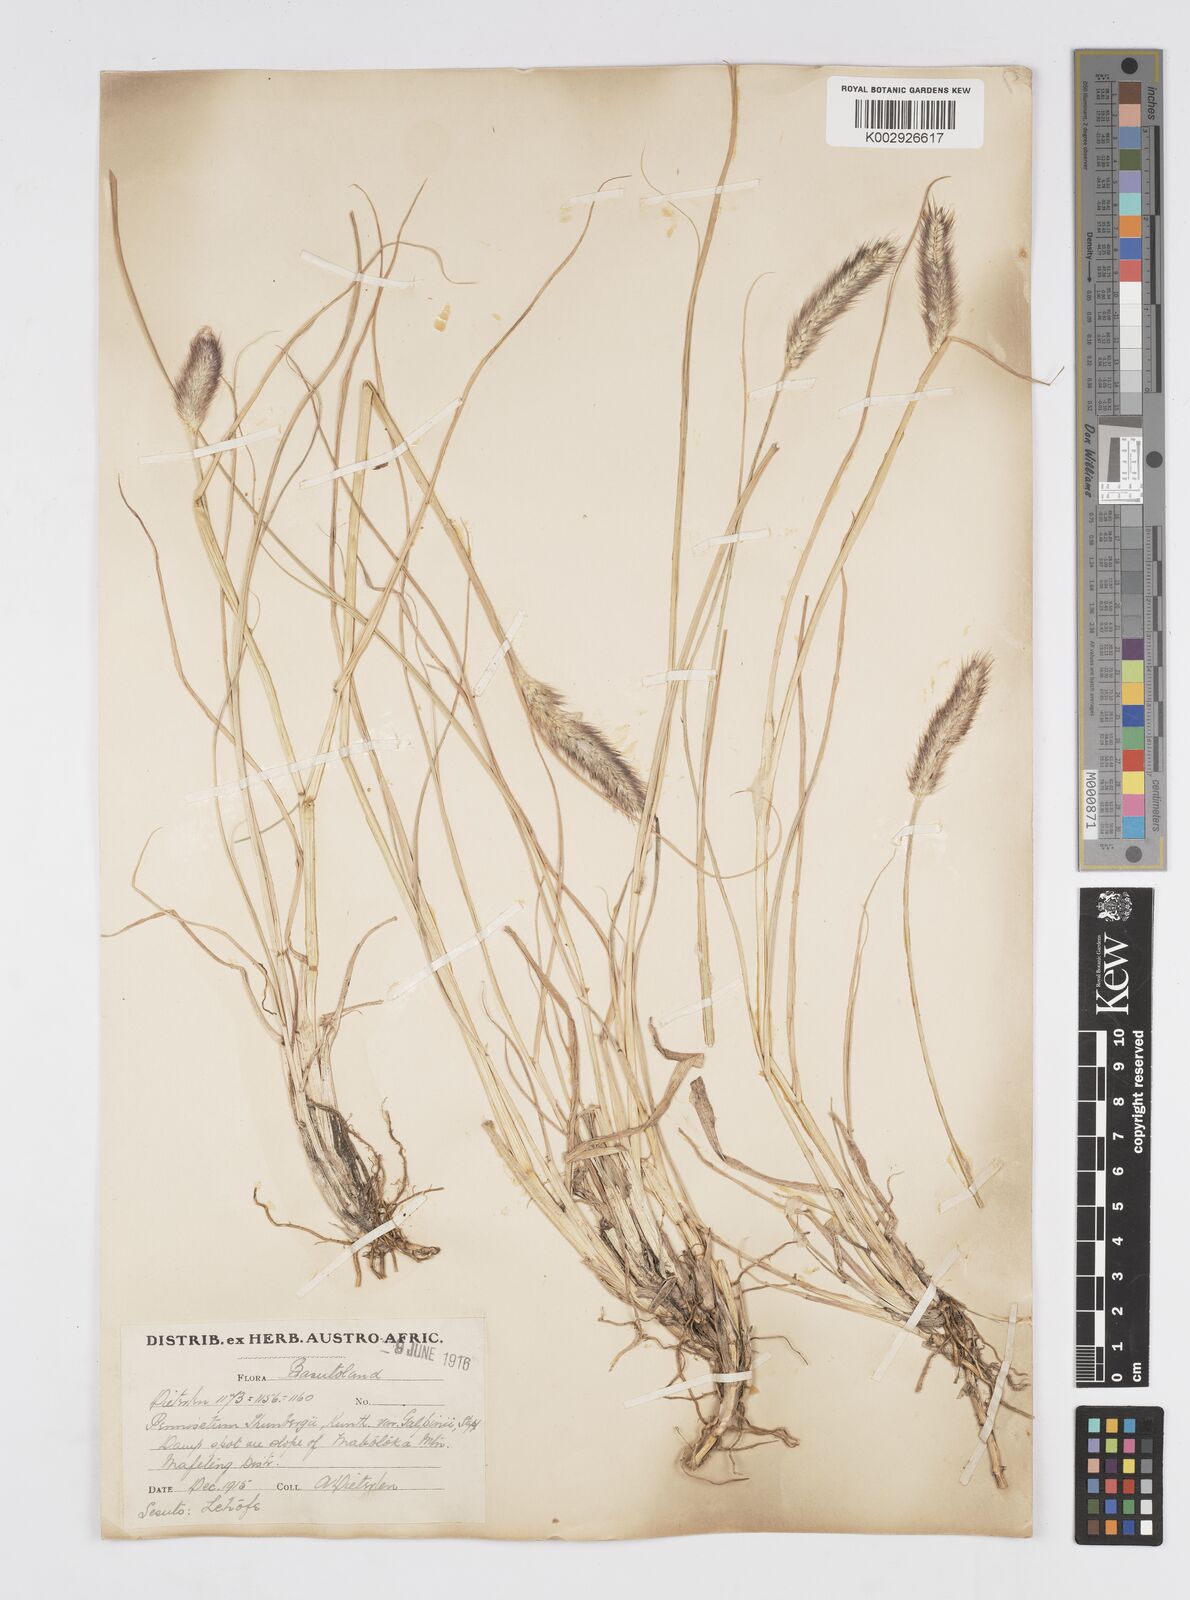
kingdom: Plantae
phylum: Tracheophyta
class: Liliopsida
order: Poales
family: Poaceae
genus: Cenchrus
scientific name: Cenchrus geniculatus
